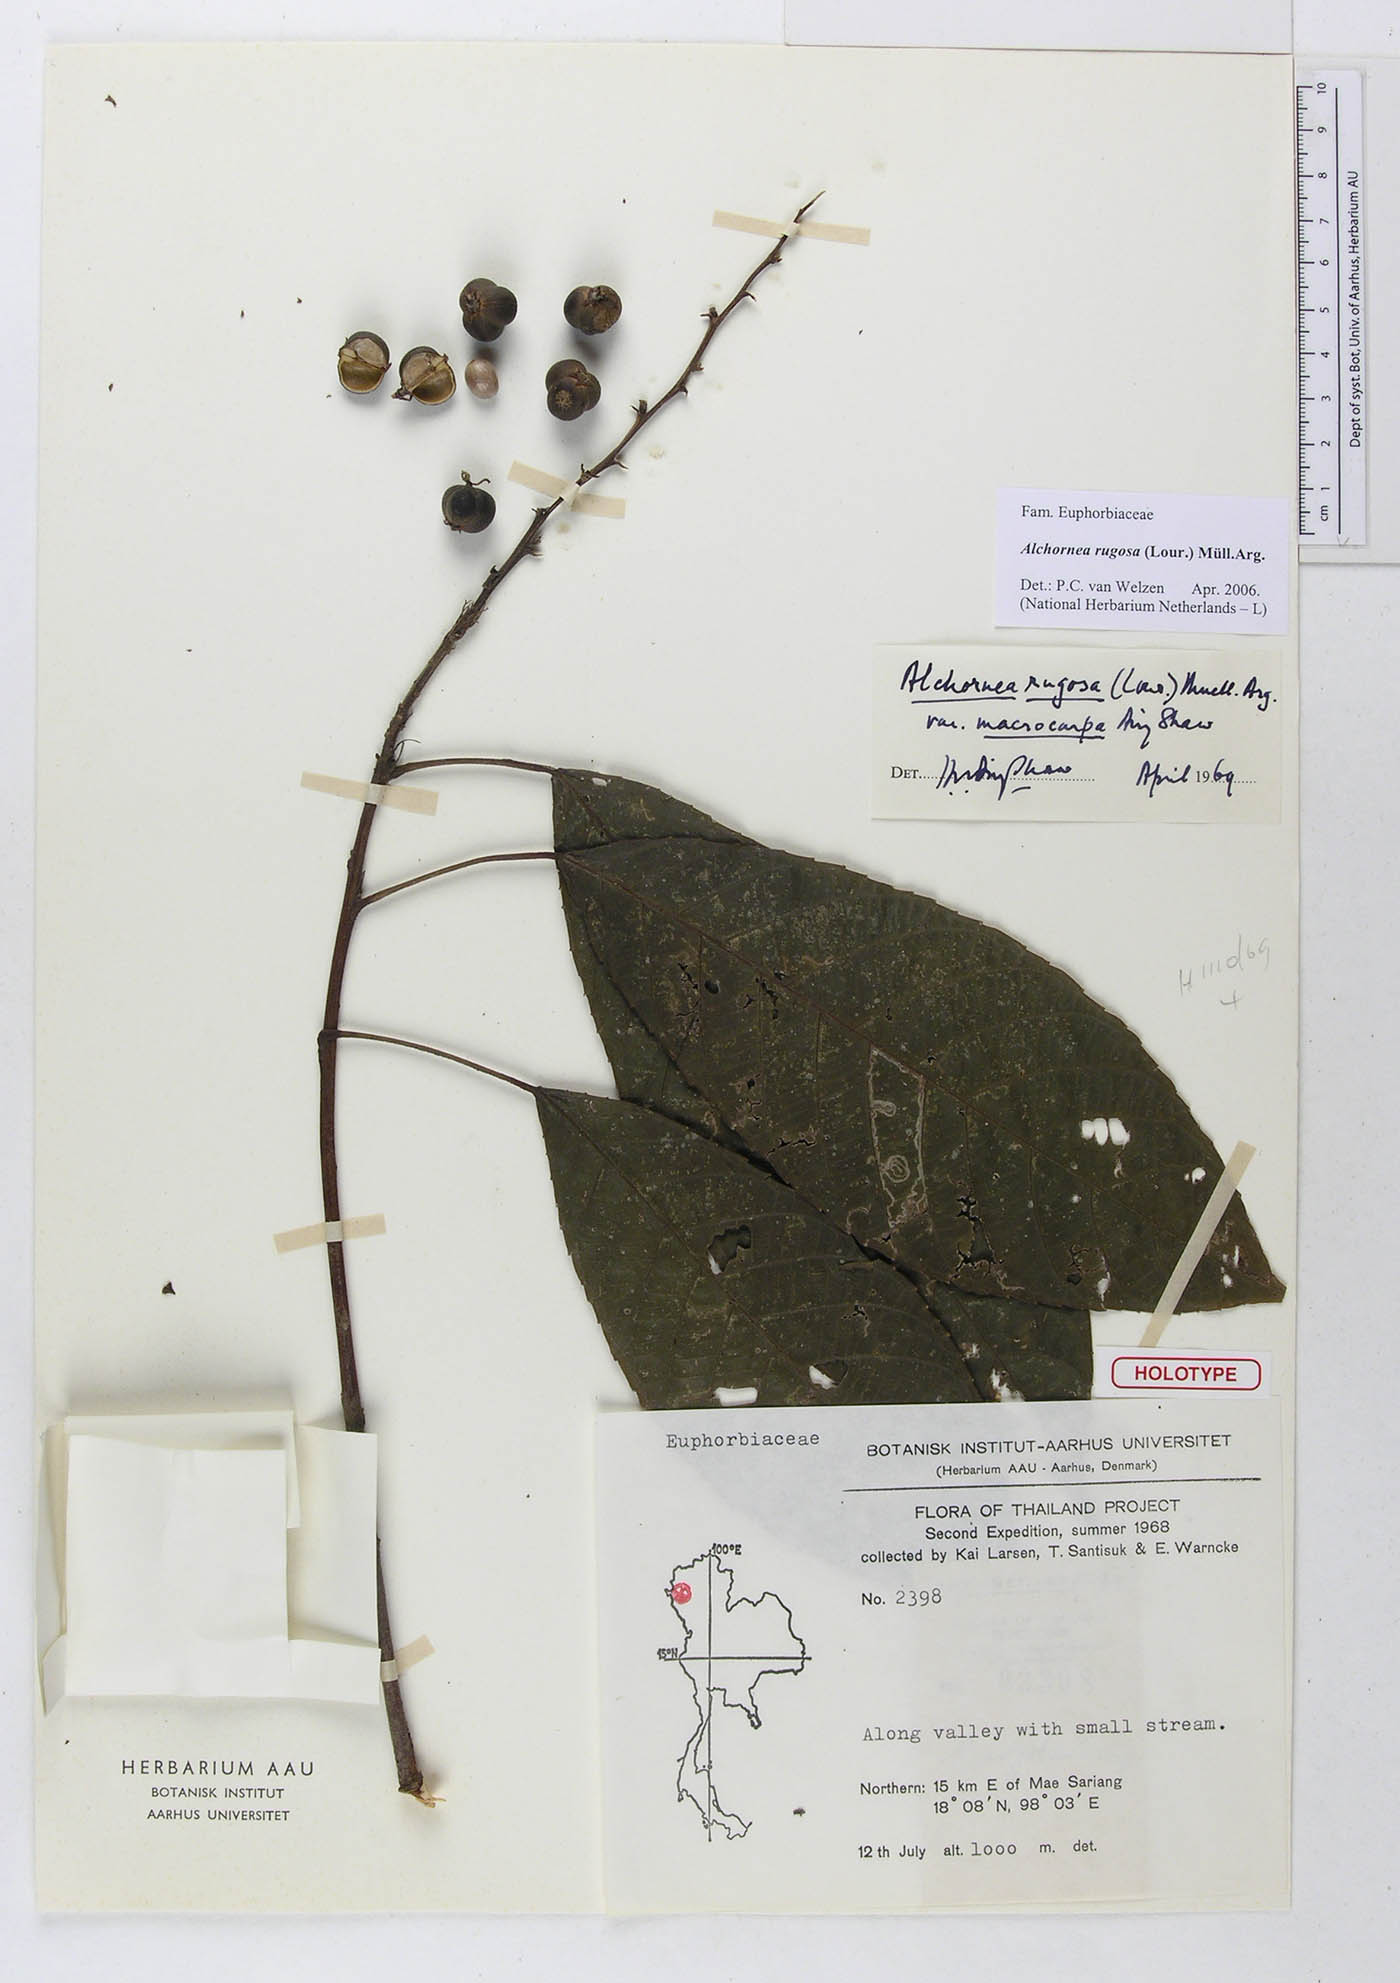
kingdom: Plantae
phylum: Tracheophyta
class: Magnoliopsida
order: Malpighiales
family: Euphorbiaceae
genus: Alchornea
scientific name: Alchornea rugosa
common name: Alchorntree
